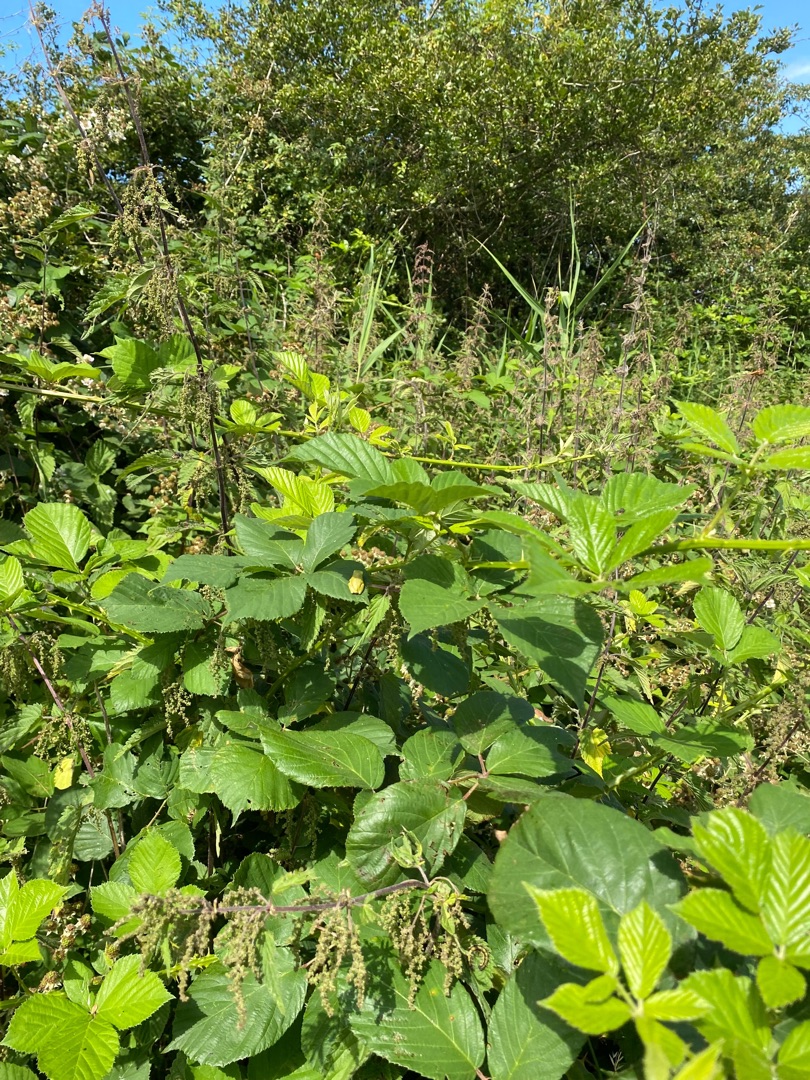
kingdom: Animalia
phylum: Chordata
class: Amphibia
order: Anura
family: Hylidae
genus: Hyla
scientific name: Hyla arborea
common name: Løvfrø
